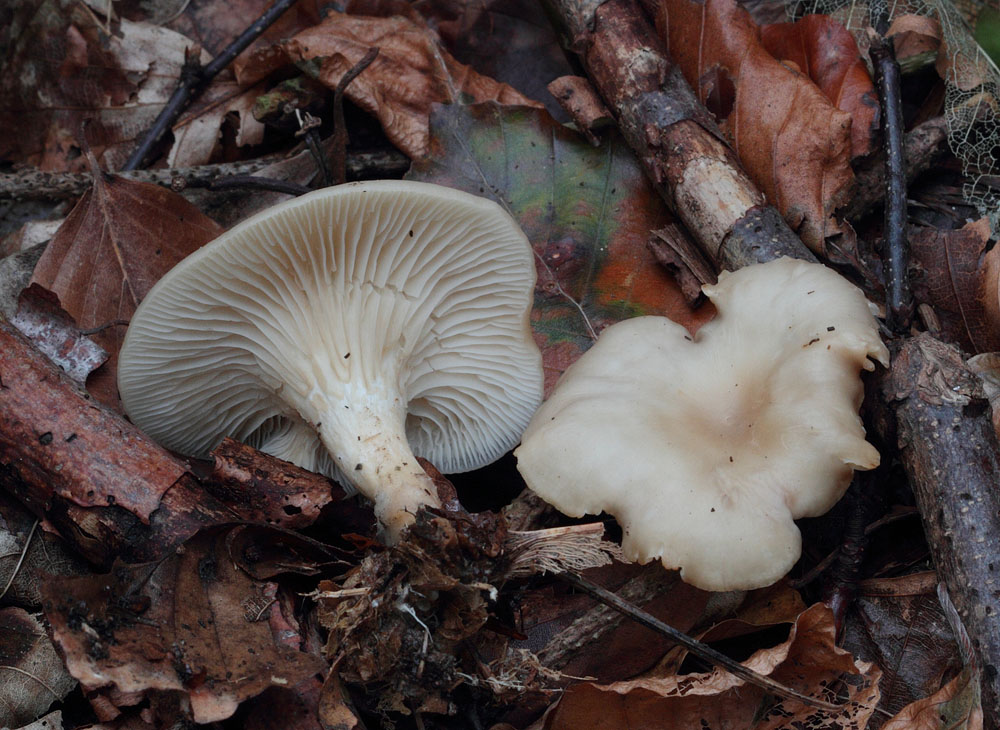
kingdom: Fungi
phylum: Basidiomycota
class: Agaricomycetes
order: Agaricales
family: Tricholomataceae
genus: Clitocybe
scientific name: Clitocybe phaeophthalma
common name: stinkende tragthat
